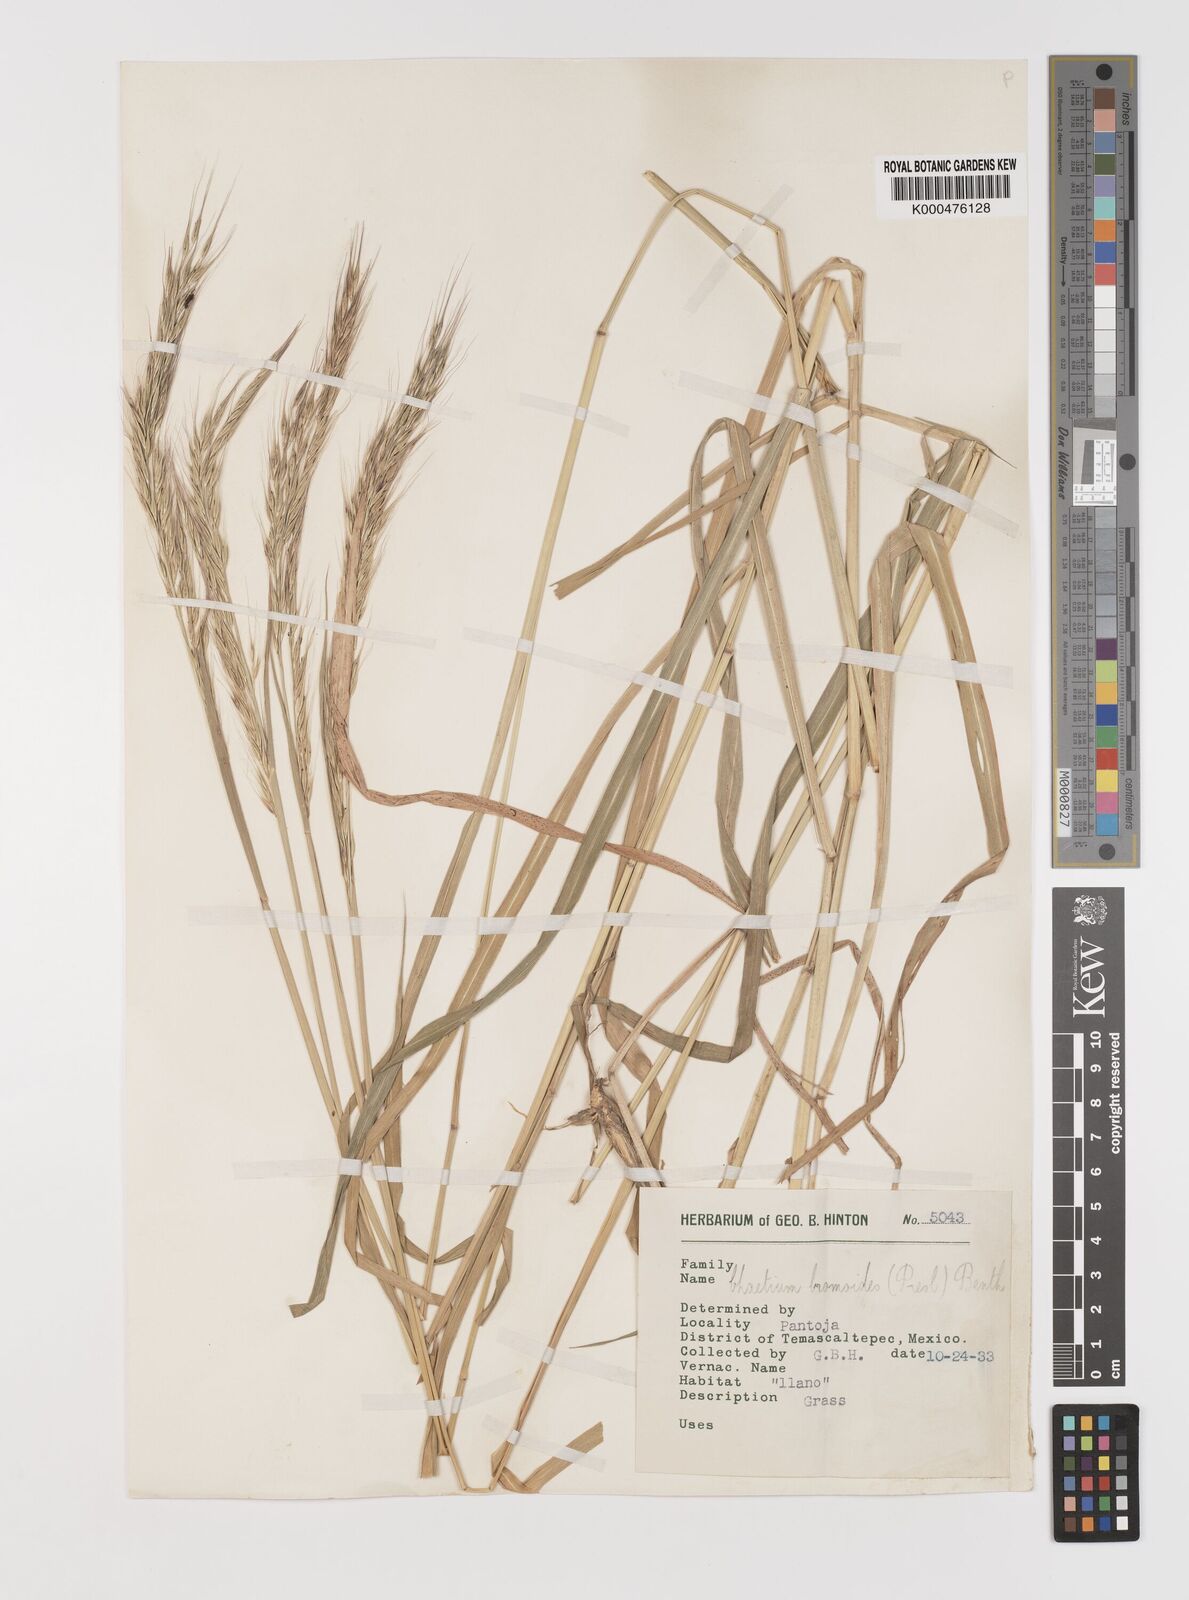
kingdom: Plantae
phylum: Tracheophyta
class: Liliopsida
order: Poales
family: Poaceae
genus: Chaetium
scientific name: Chaetium
